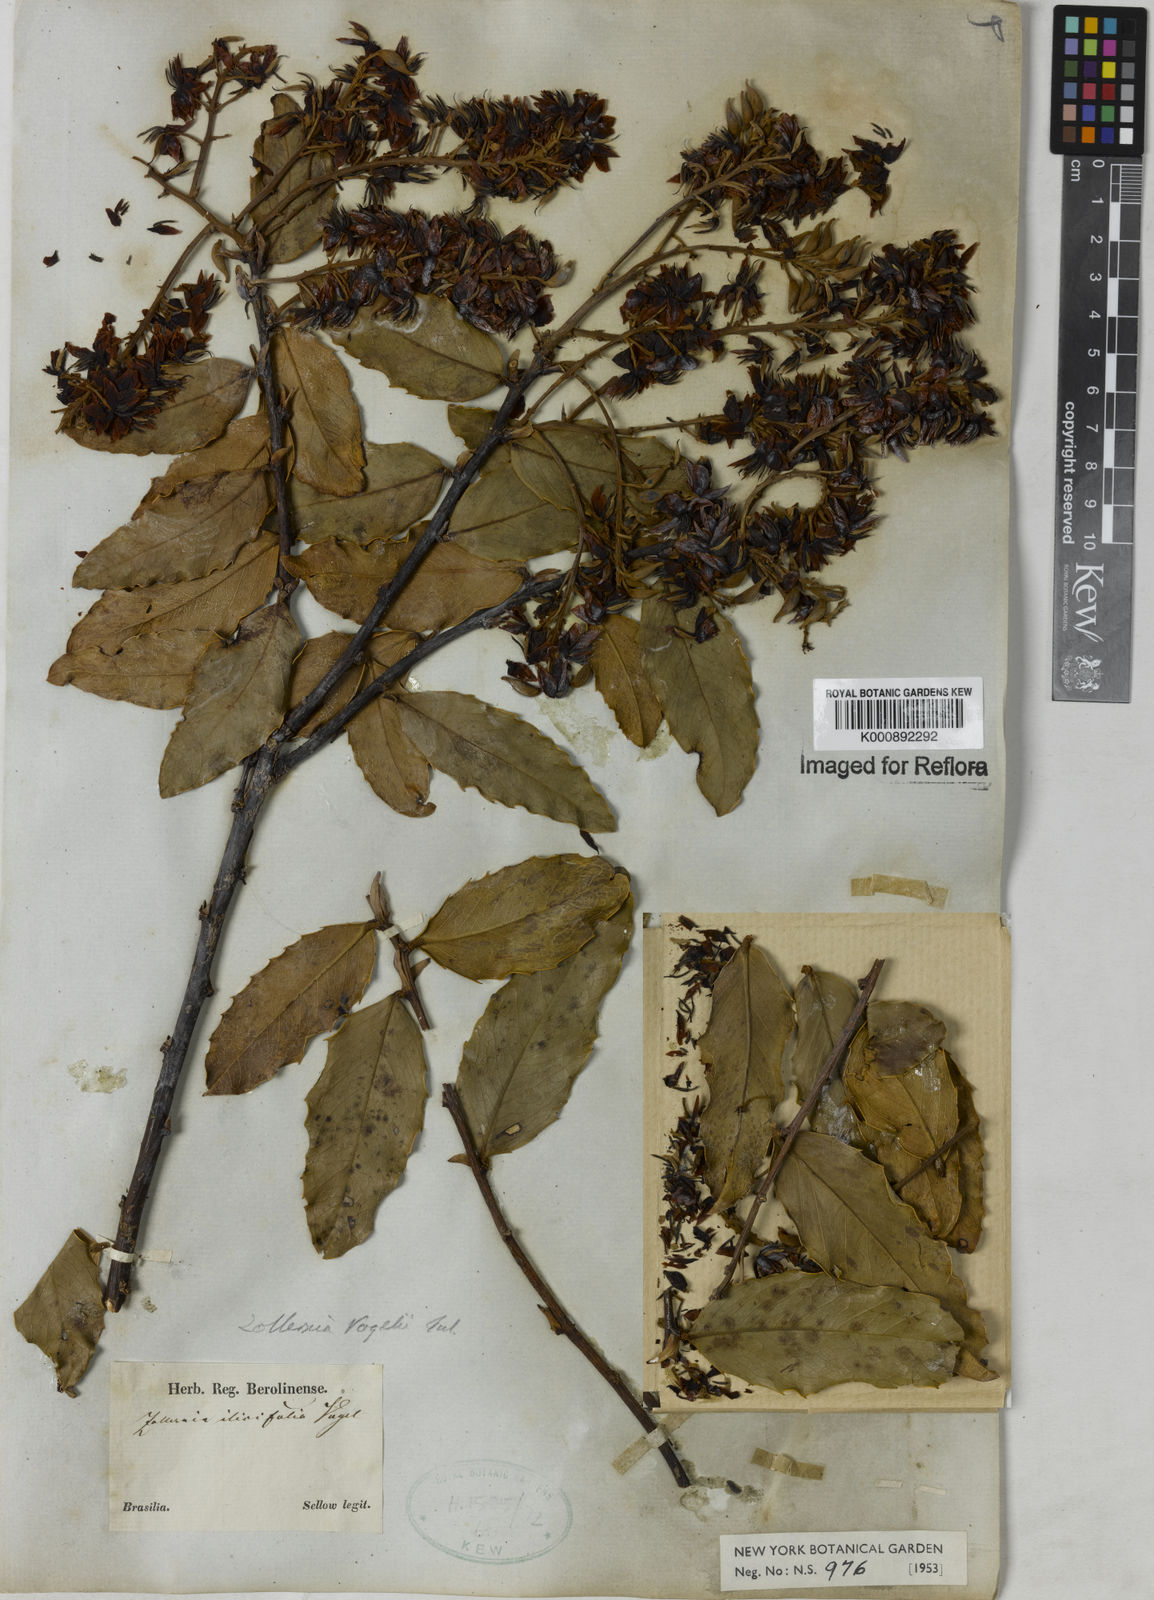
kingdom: Plantae
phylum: Tracheophyta
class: Magnoliopsida
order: Fabales
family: Fabaceae
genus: Zollernia
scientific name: Zollernia ilicifolia
